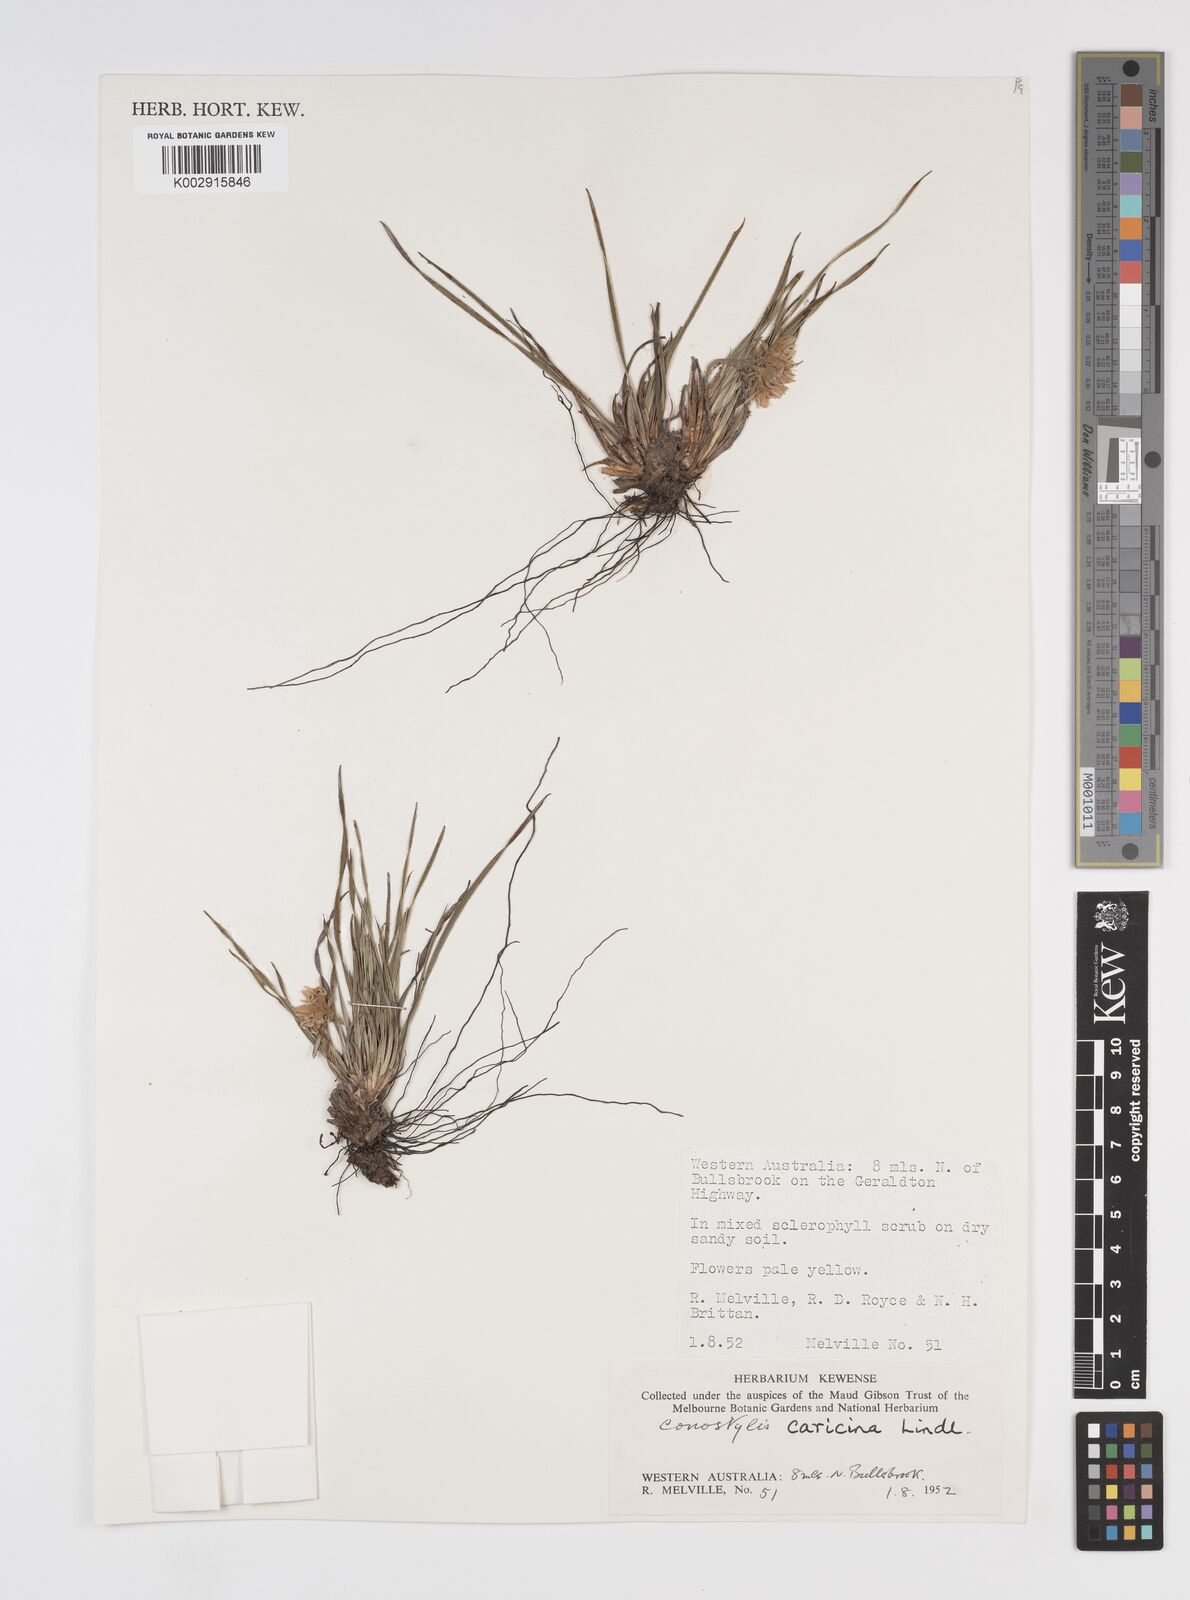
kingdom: Plantae
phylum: Tracheophyta
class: Liliopsida
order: Commelinales
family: Haemodoraceae
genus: Conostylis
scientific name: Conostylis caricina
